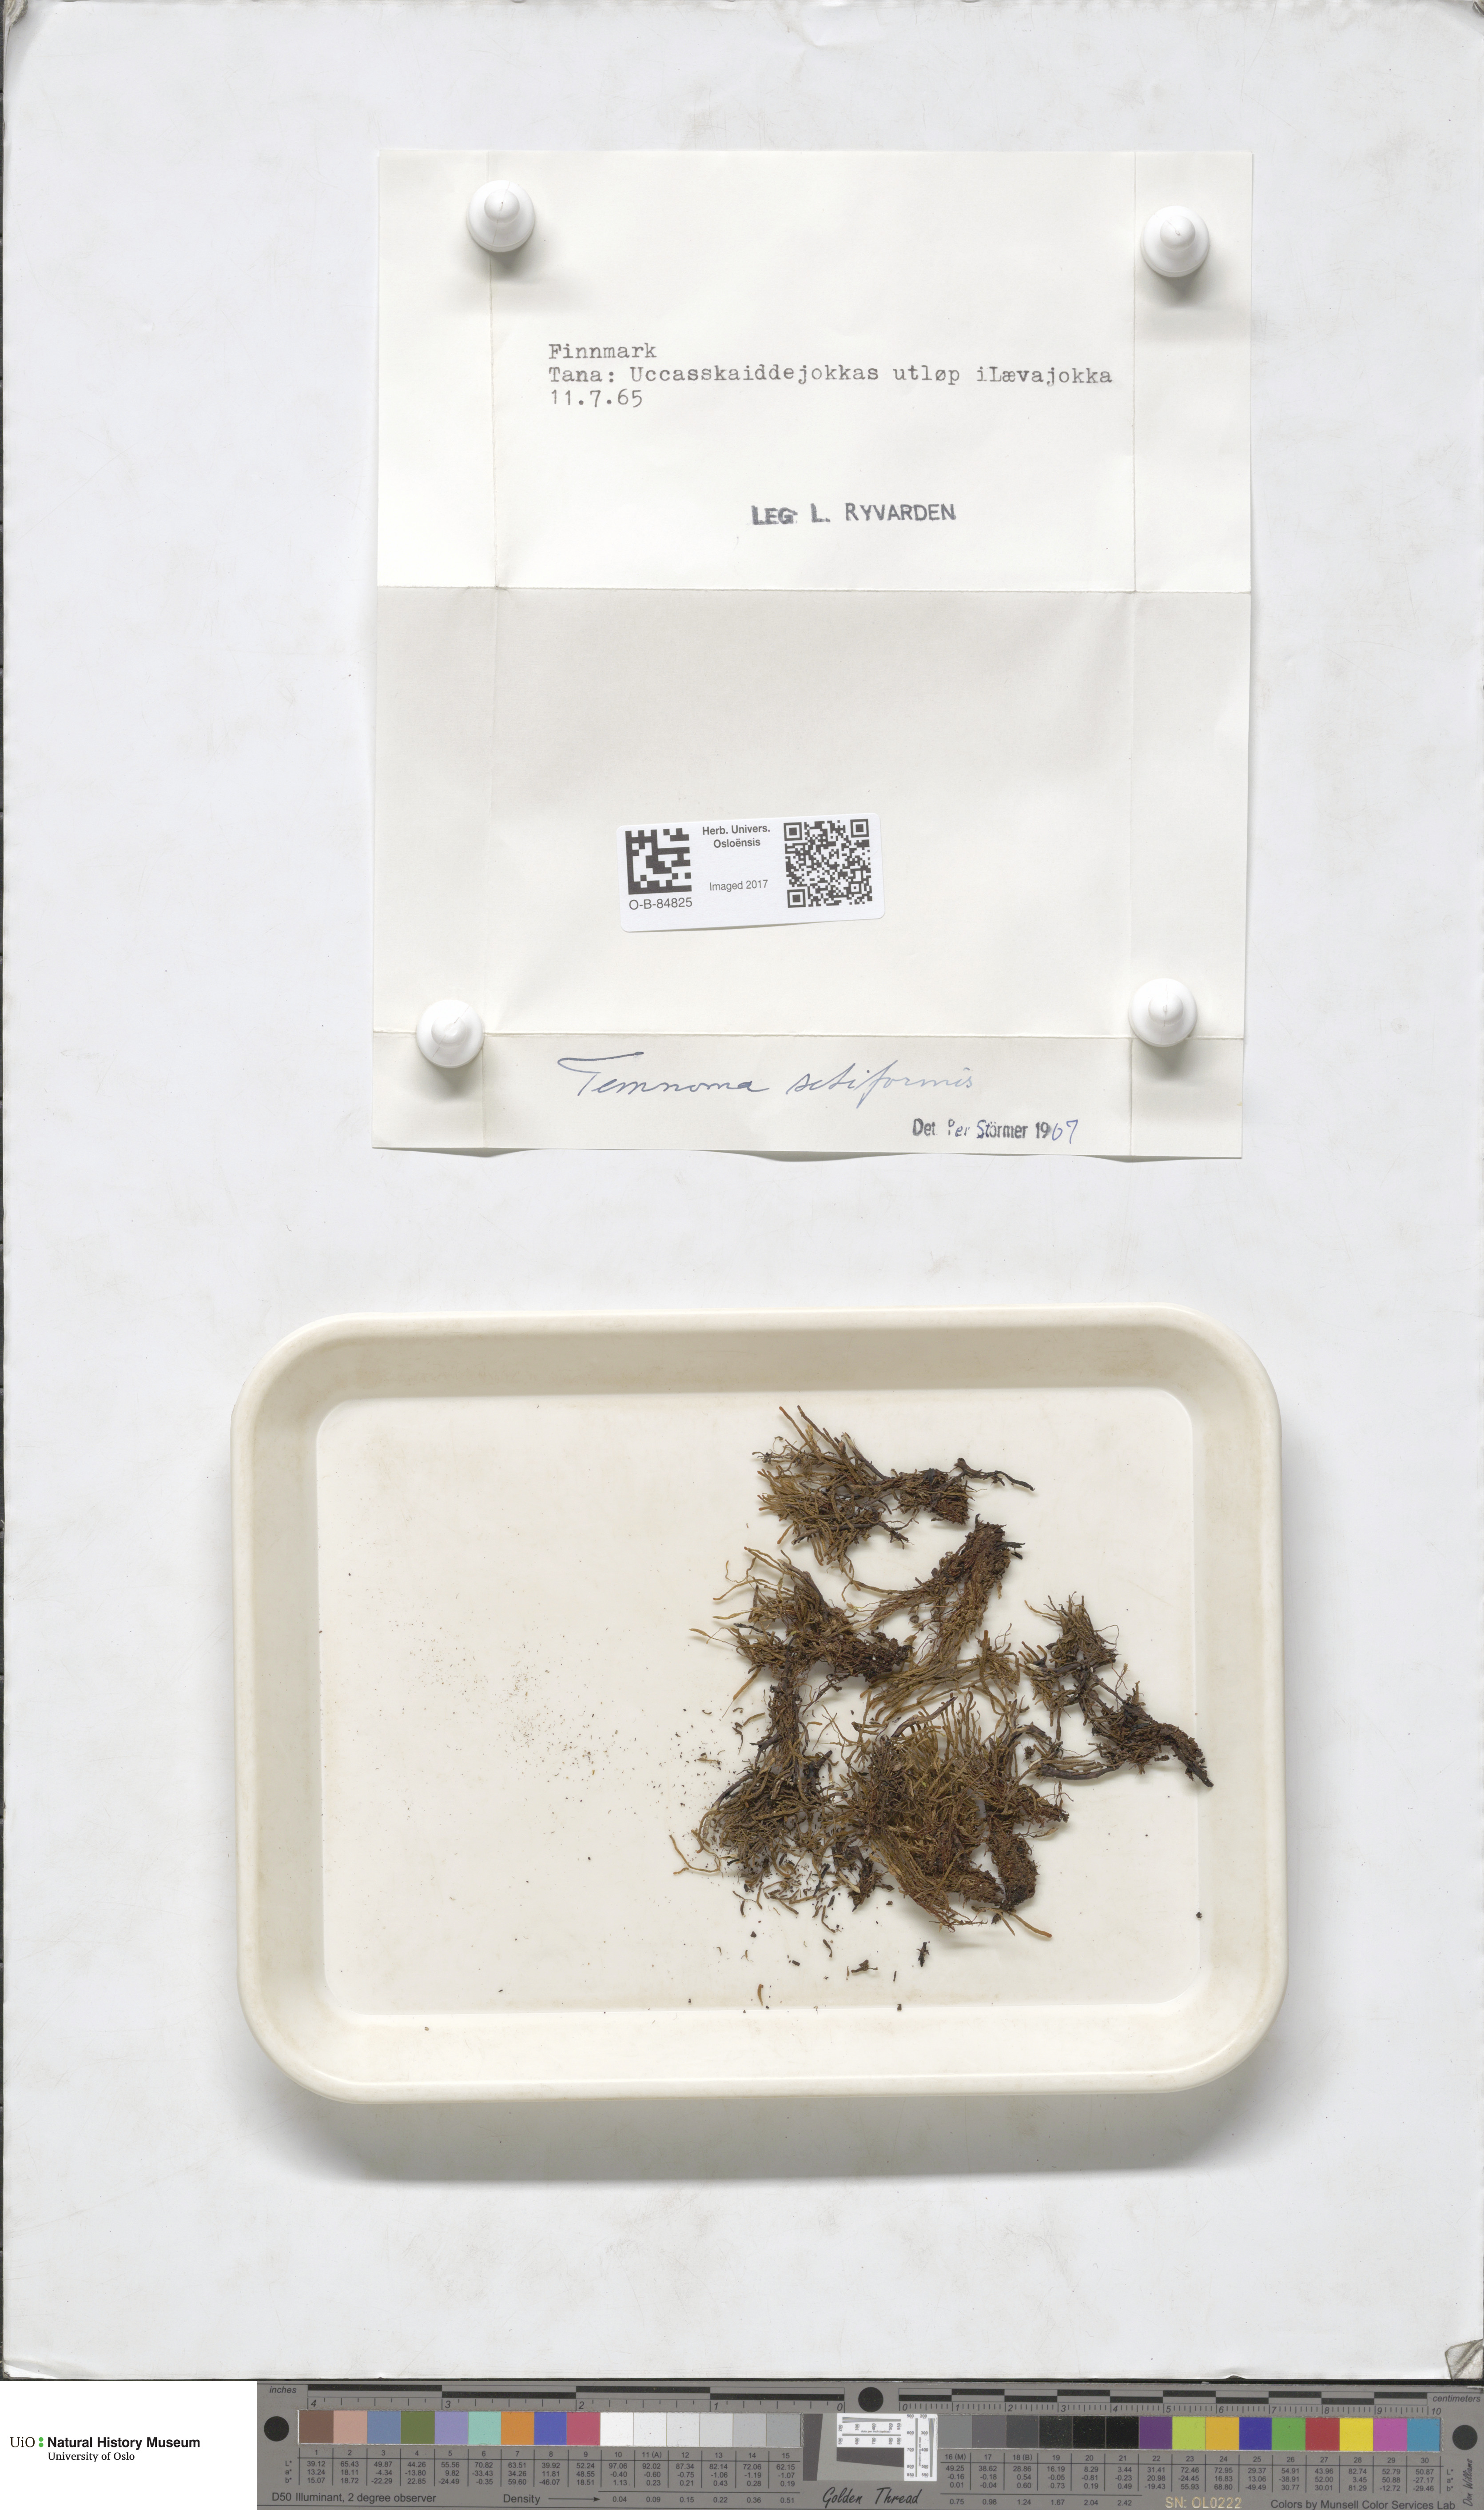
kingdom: Plantae
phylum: Marchantiophyta
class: Jungermanniopsida
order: Jungermanniales
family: Anastrophyllaceae
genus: Tetralophozia
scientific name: Tetralophozia setiformis
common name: Monster pawwort
